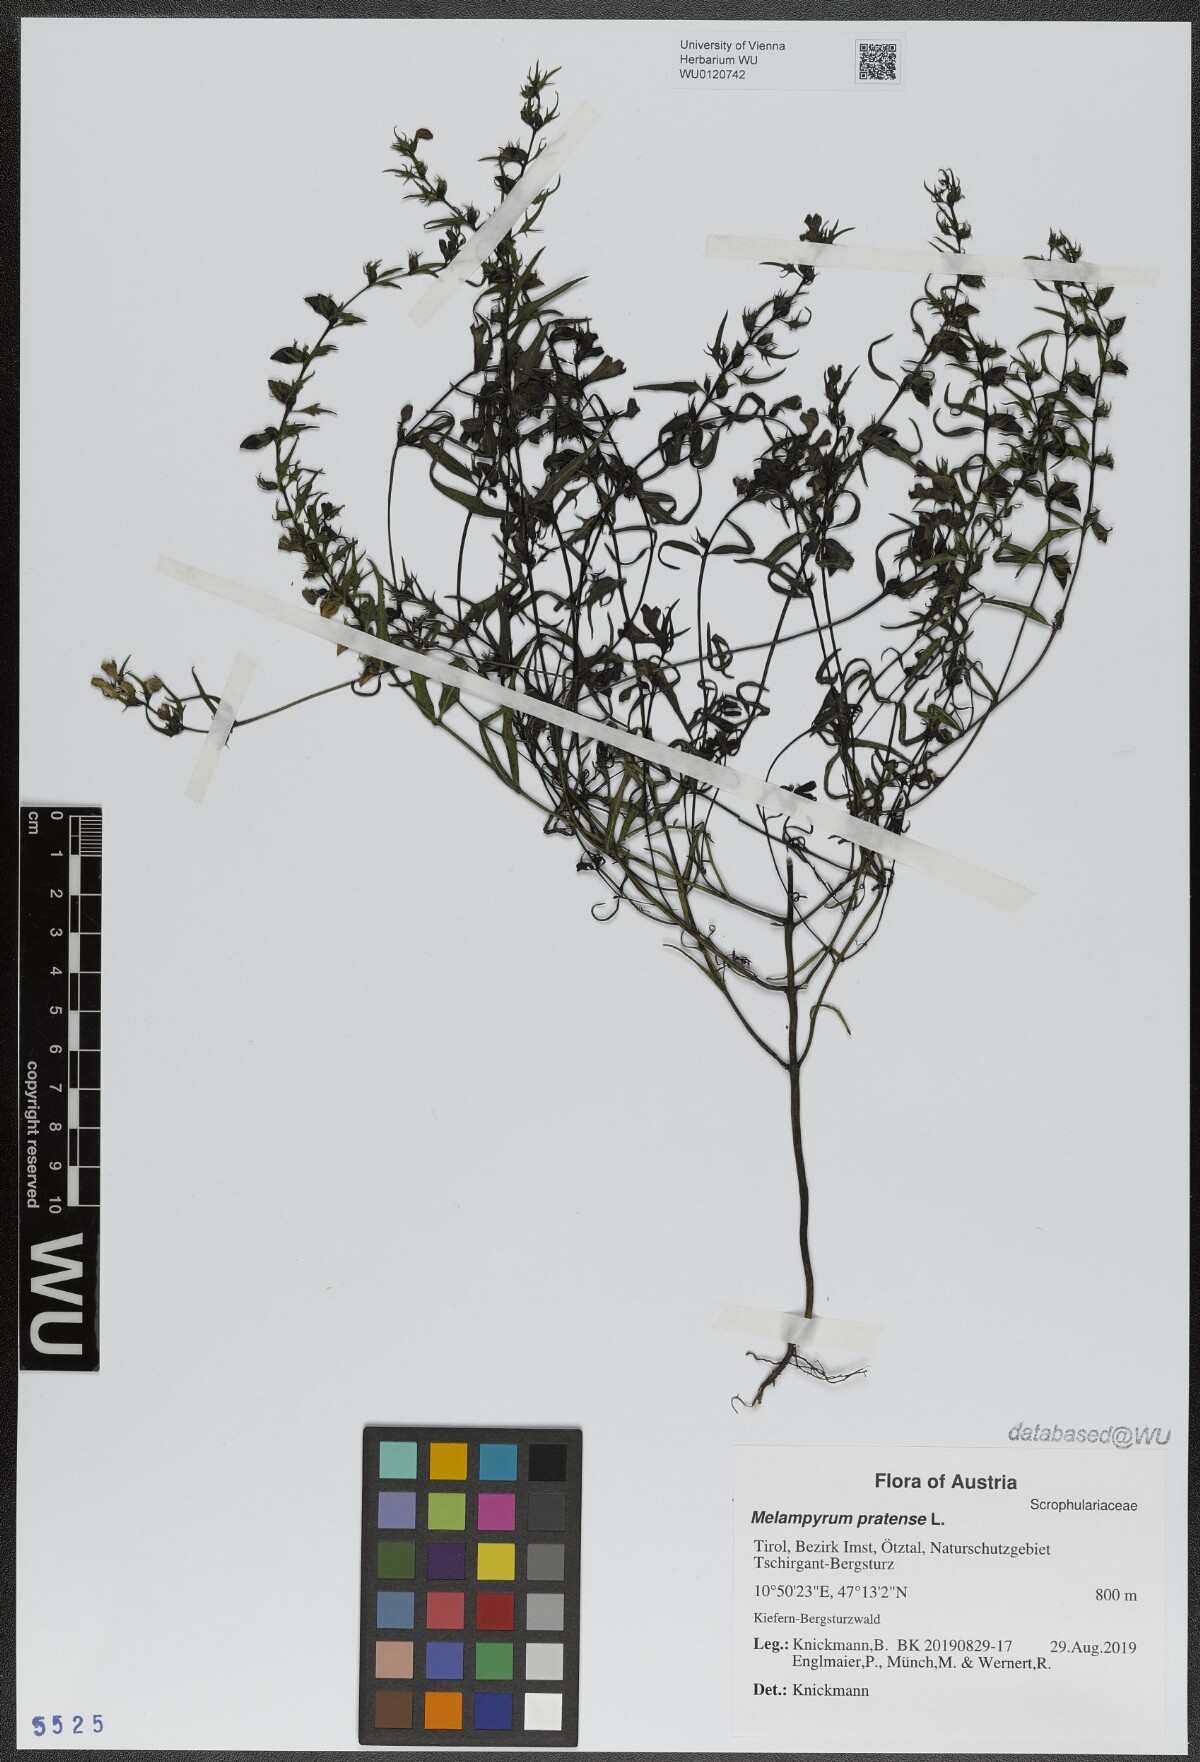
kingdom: Plantae
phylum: Tracheophyta
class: Magnoliopsida
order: Lamiales
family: Orobanchaceae
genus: Melampyrum
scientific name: Melampyrum pratense
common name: Common cow-wheat
